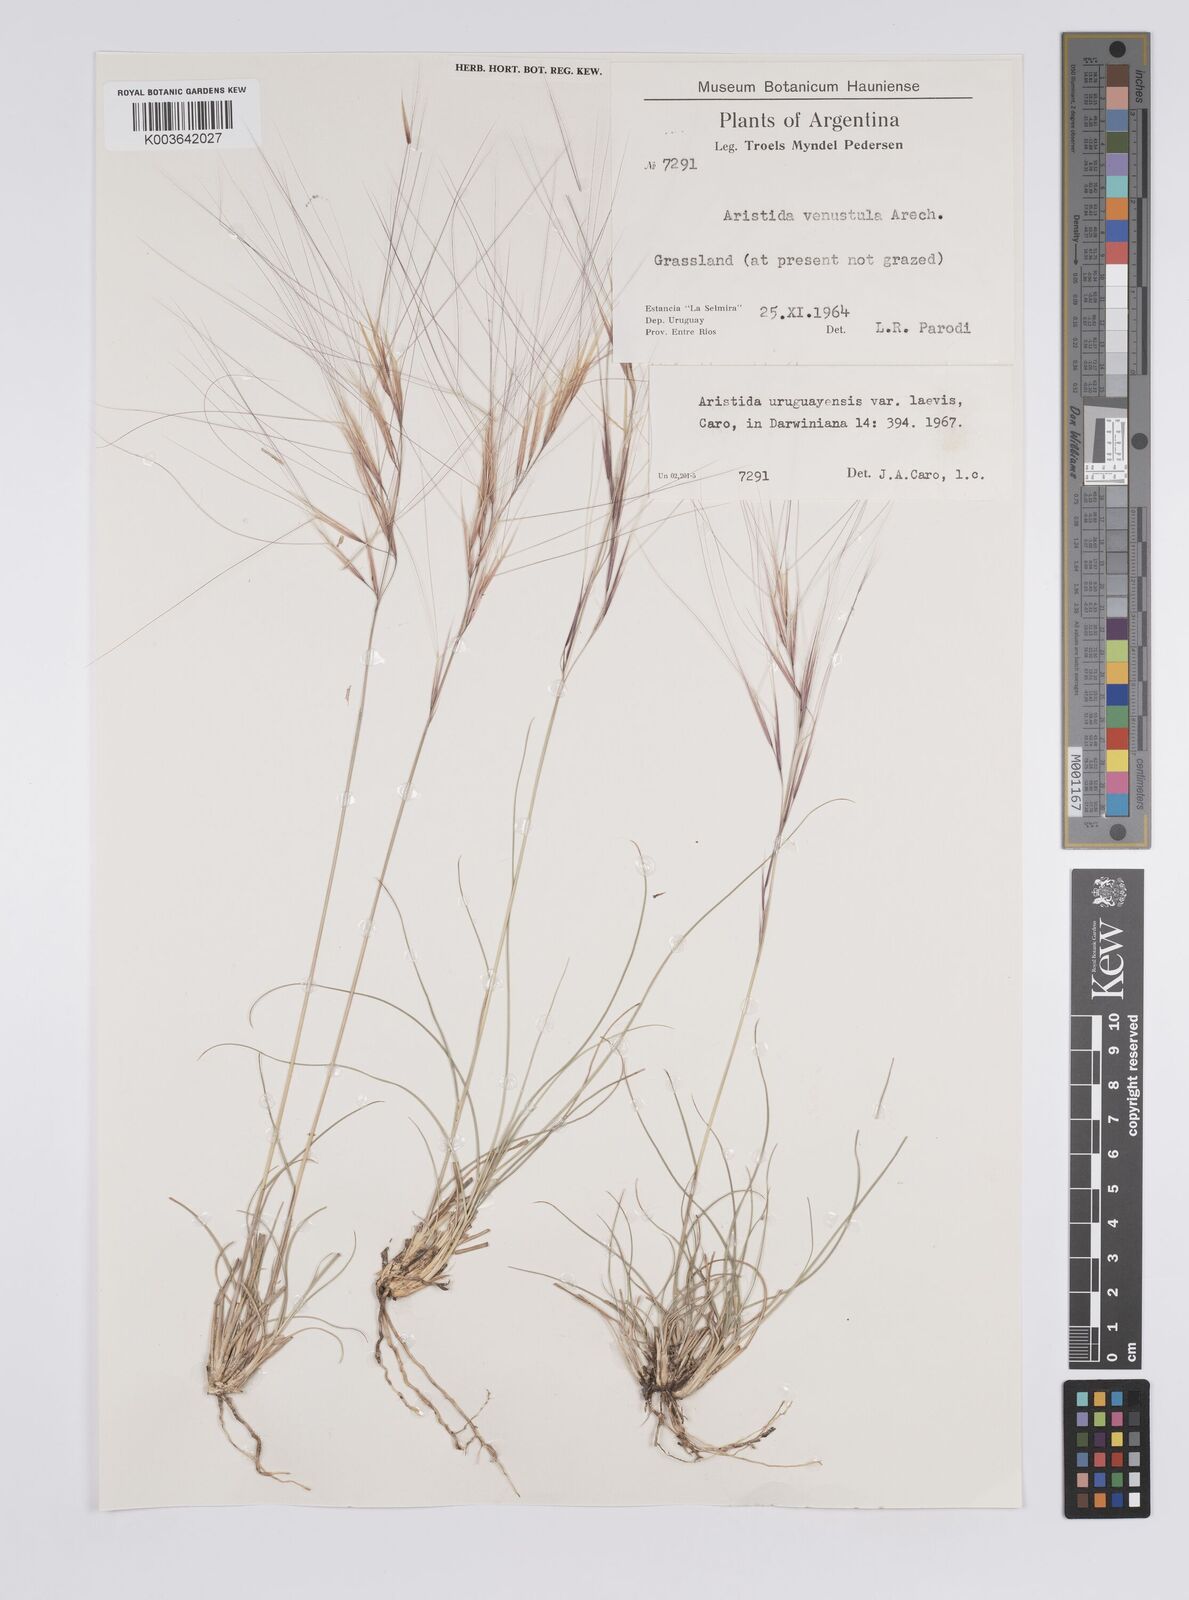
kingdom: Plantae
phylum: Tracheophyta
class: Liliopsida
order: Poales
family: Poaceae
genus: Aristida
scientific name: Aristida uruguayensis
